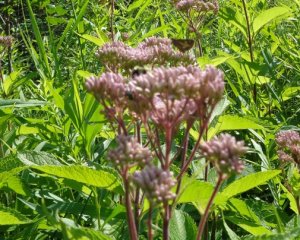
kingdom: Animalia
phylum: Arthropoda
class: Insecta
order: Lepidoptera
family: Hesperiidae
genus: Poanes
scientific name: Poanes massasoit
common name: Mulberry Wing
